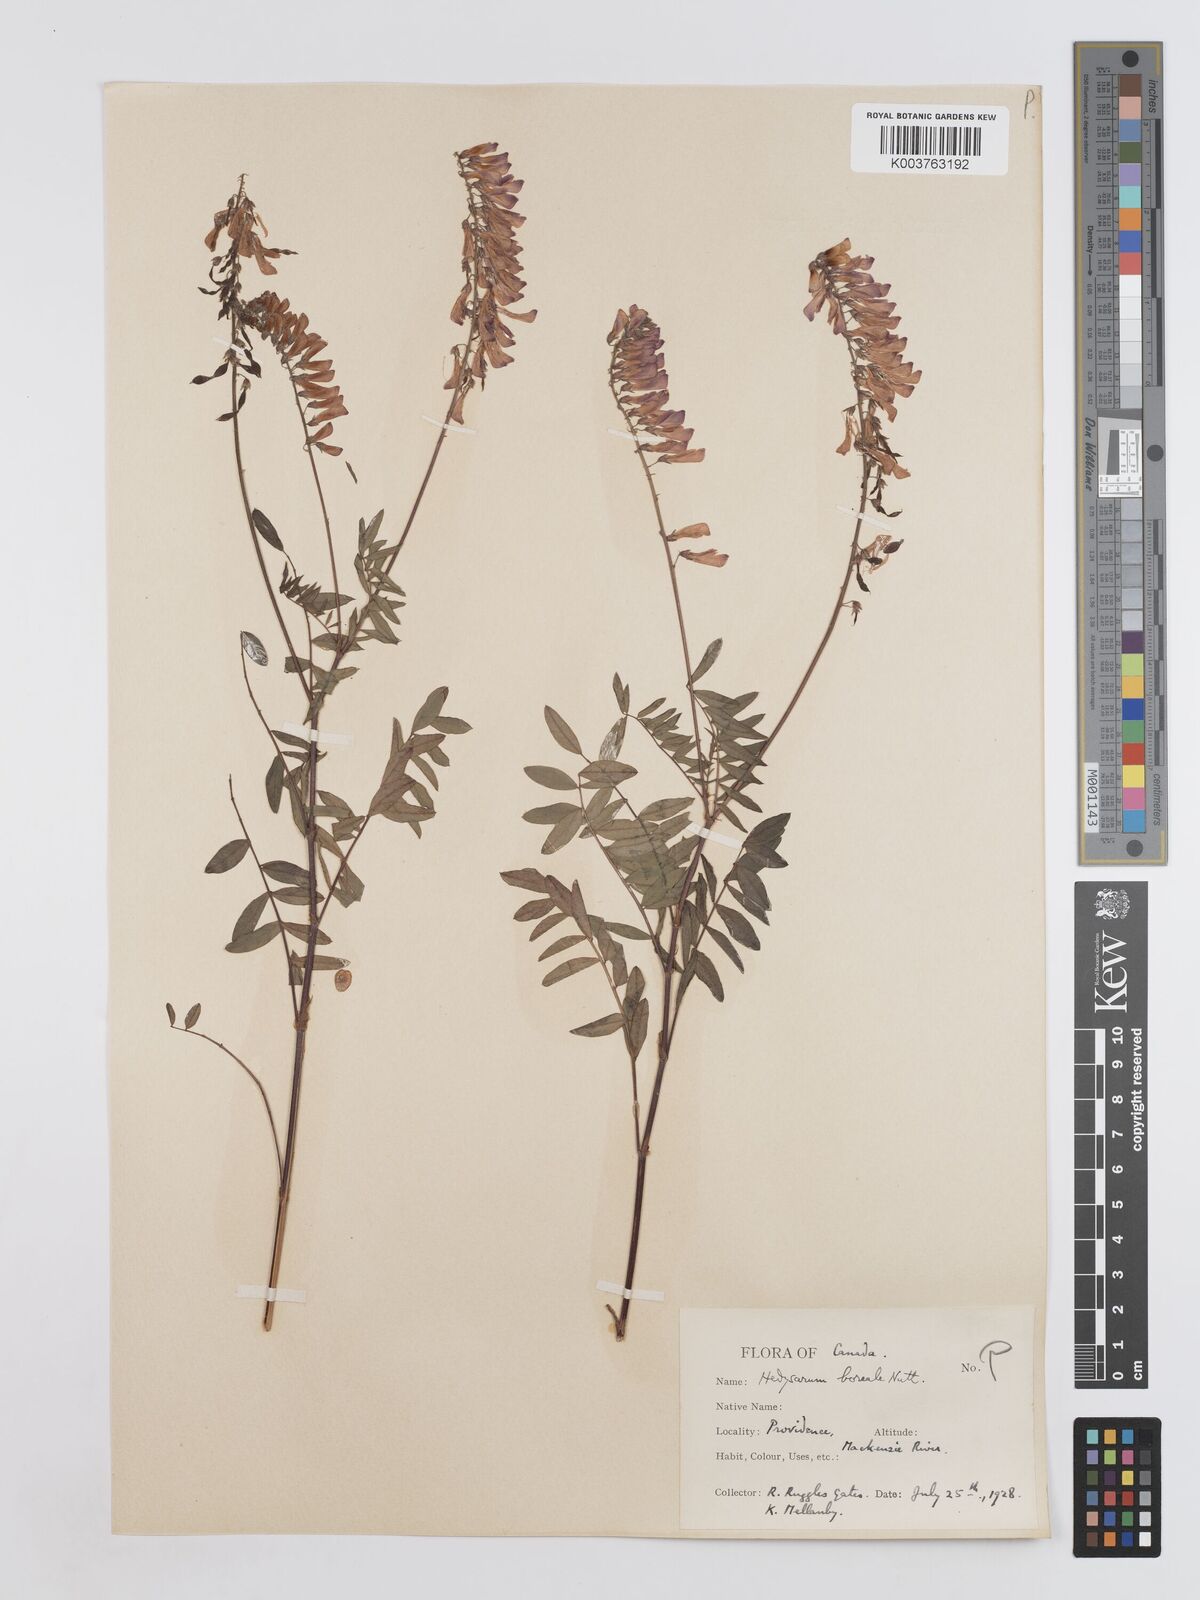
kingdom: Plantae
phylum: Tracheophyta
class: Magnoliopsida
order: Fabales
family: Fabaceae
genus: Hedysarum
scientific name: Hedysarum boreale
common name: Northern sweet-vetch
